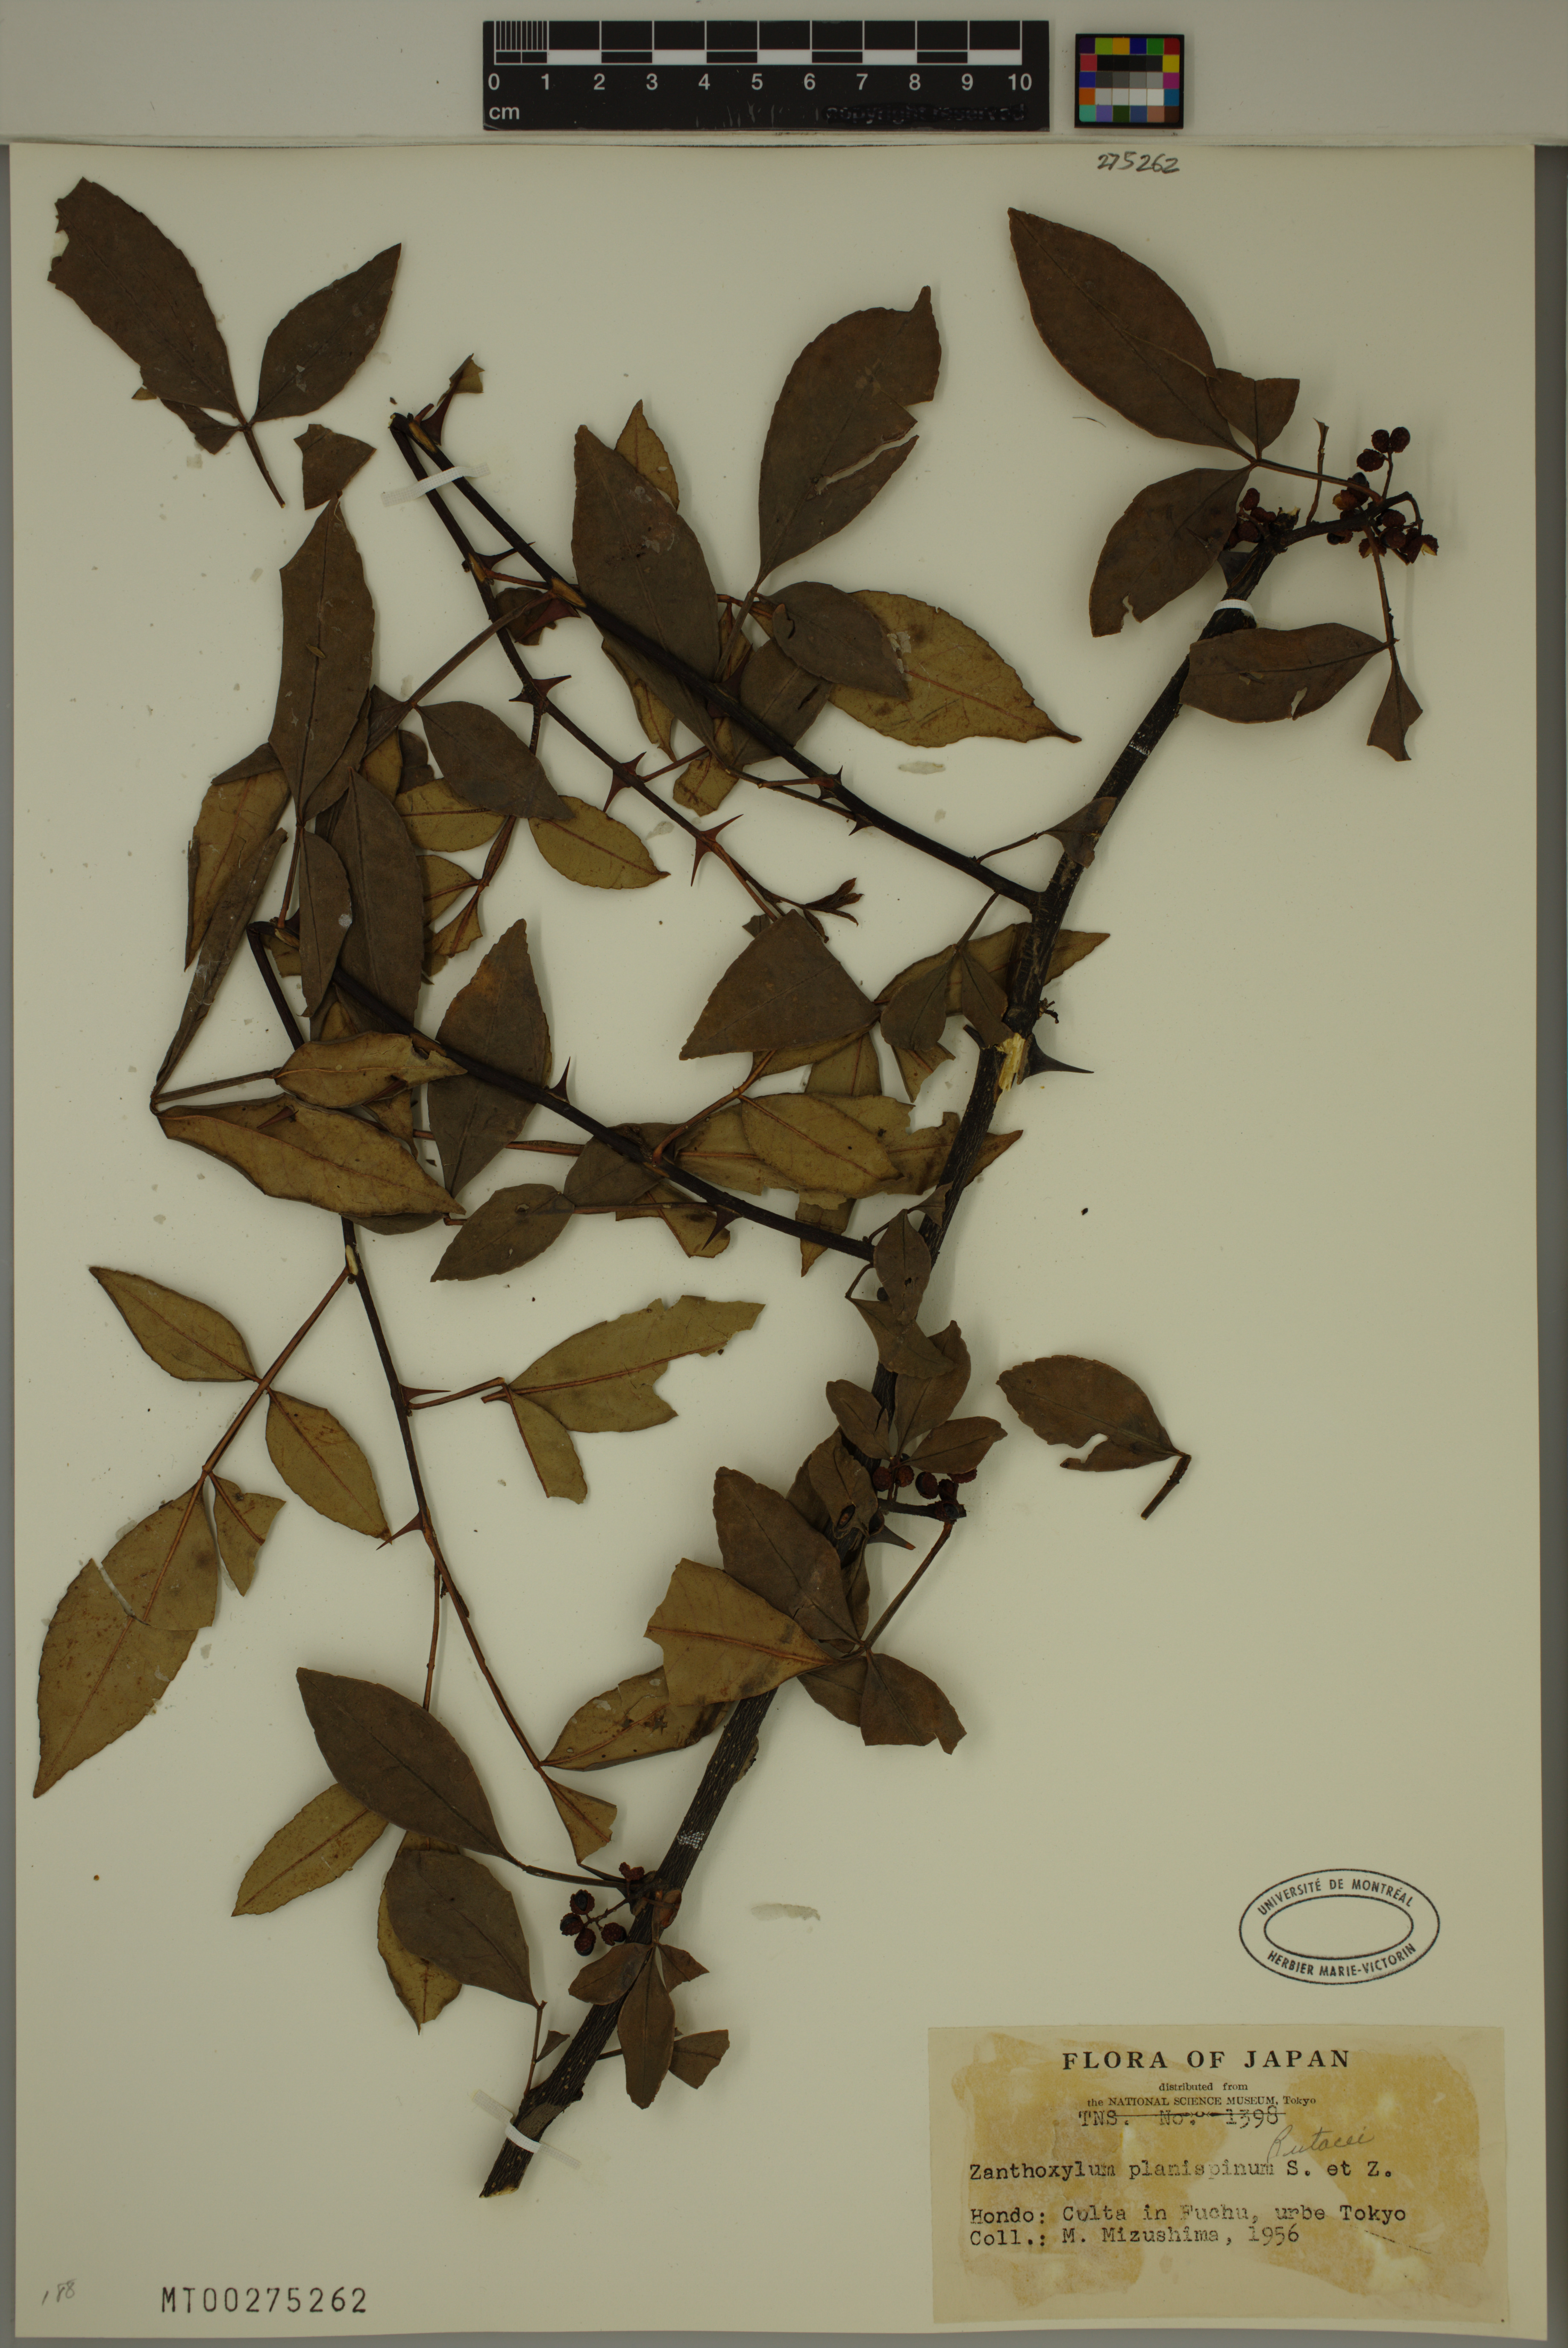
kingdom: Plantae
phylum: Tracheophyta
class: Magnoliopsida
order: Sapindales
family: Rutaceae
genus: Zanthoxylum
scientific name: Zanthoxylum armatum
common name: Winged prickly-ash
